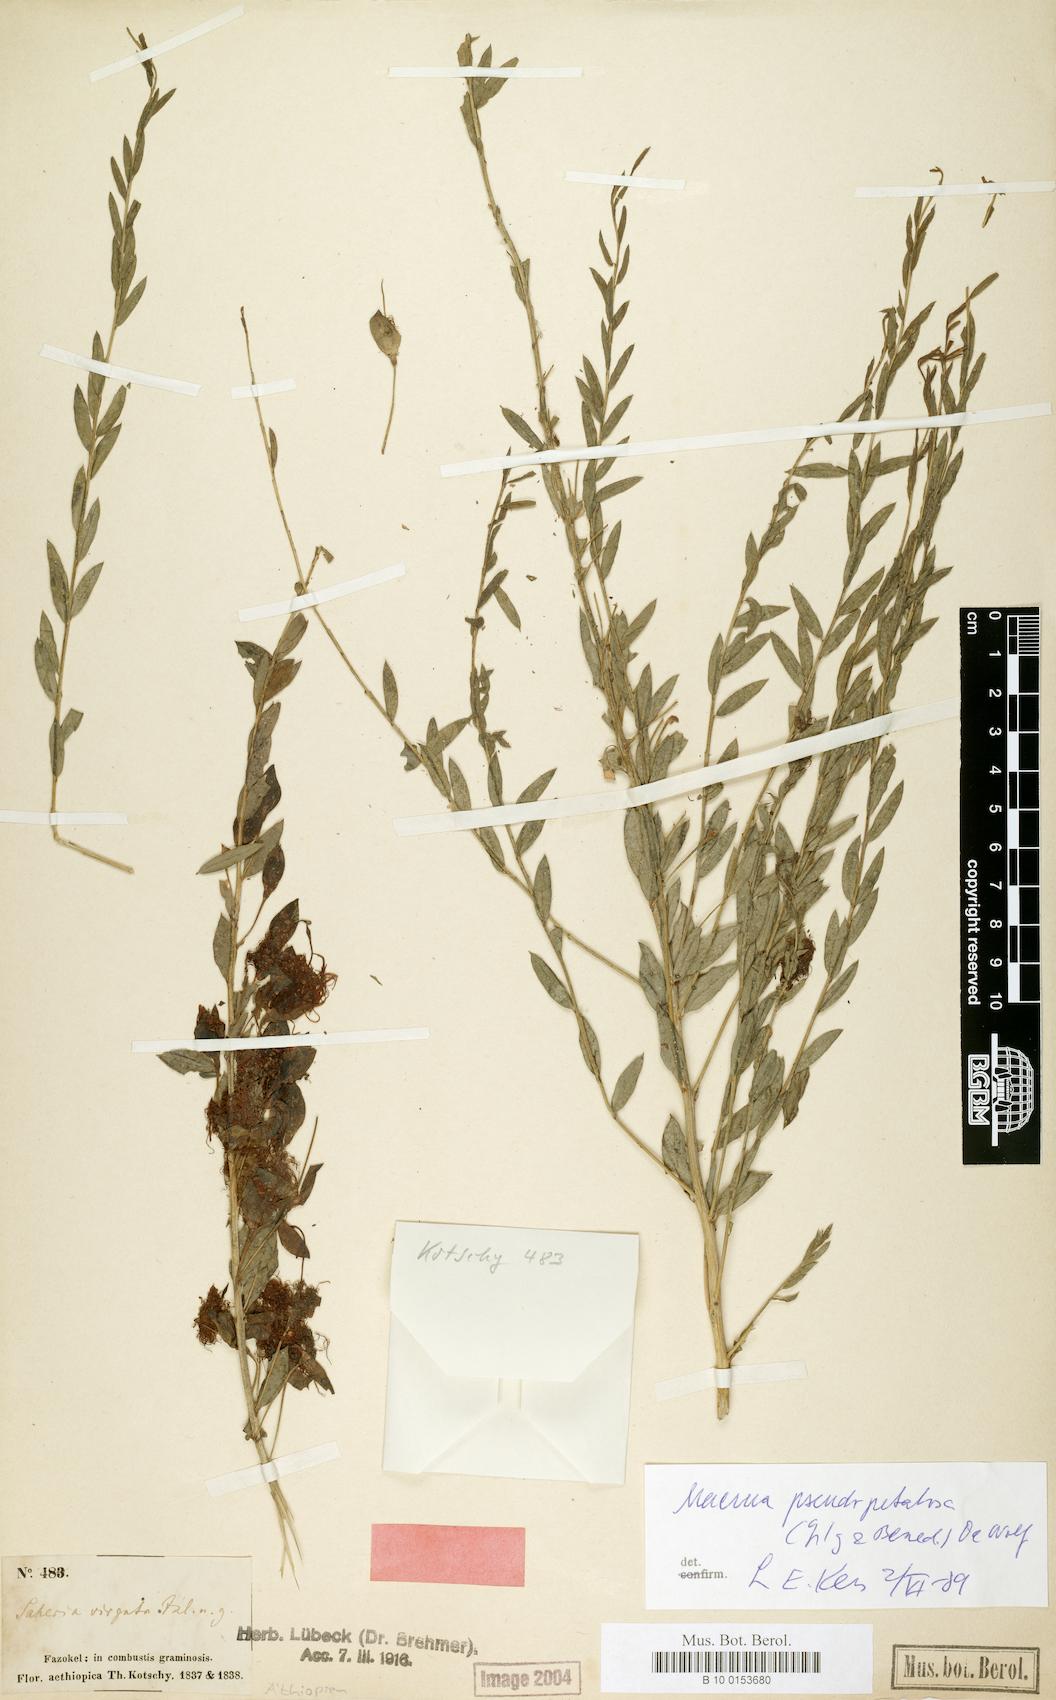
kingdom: Plantae
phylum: Tracheophyta
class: Magnoliopsida
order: Brassicales
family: Capparaceae
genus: Maerua
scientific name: Maerua pseudopetalosa
